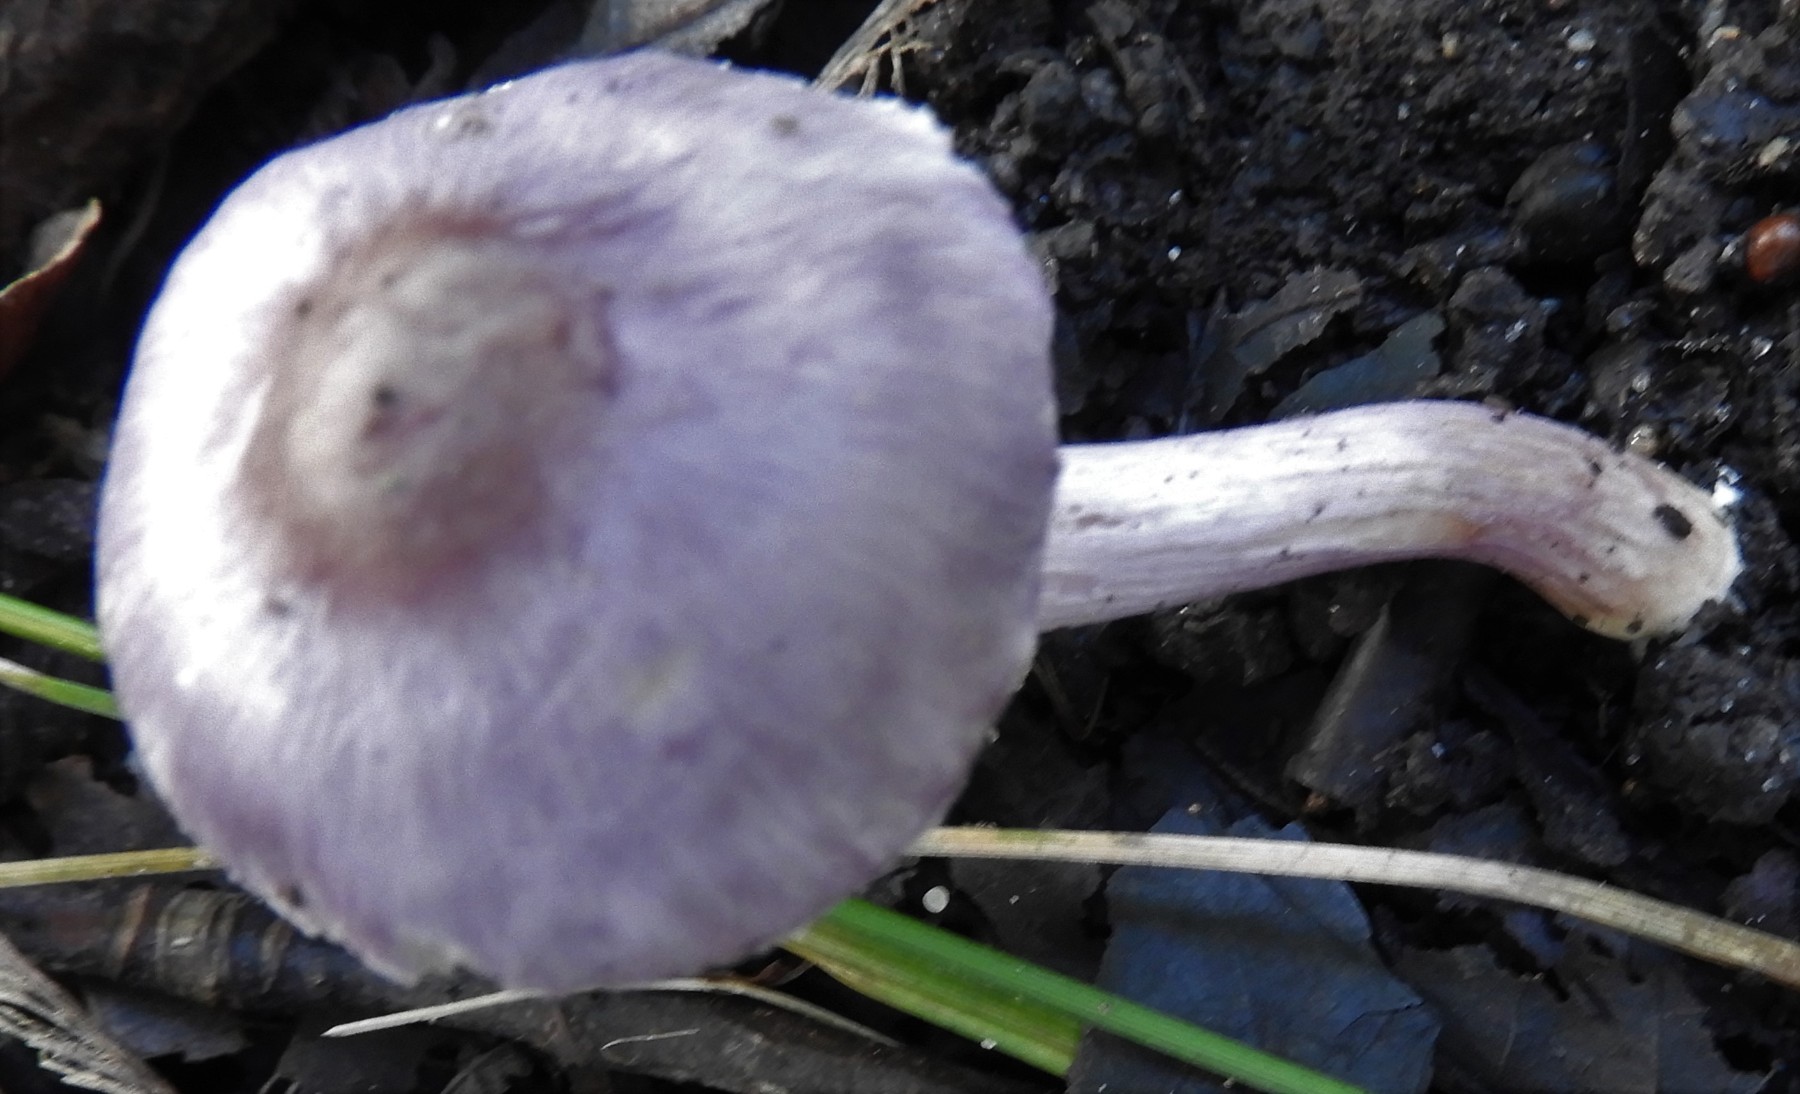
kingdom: Fungi
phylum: Basidiomycota
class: Agaricomycetes
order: Agaricales
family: Inocybaceae
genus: Inocybe
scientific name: Inocybe geophylla
